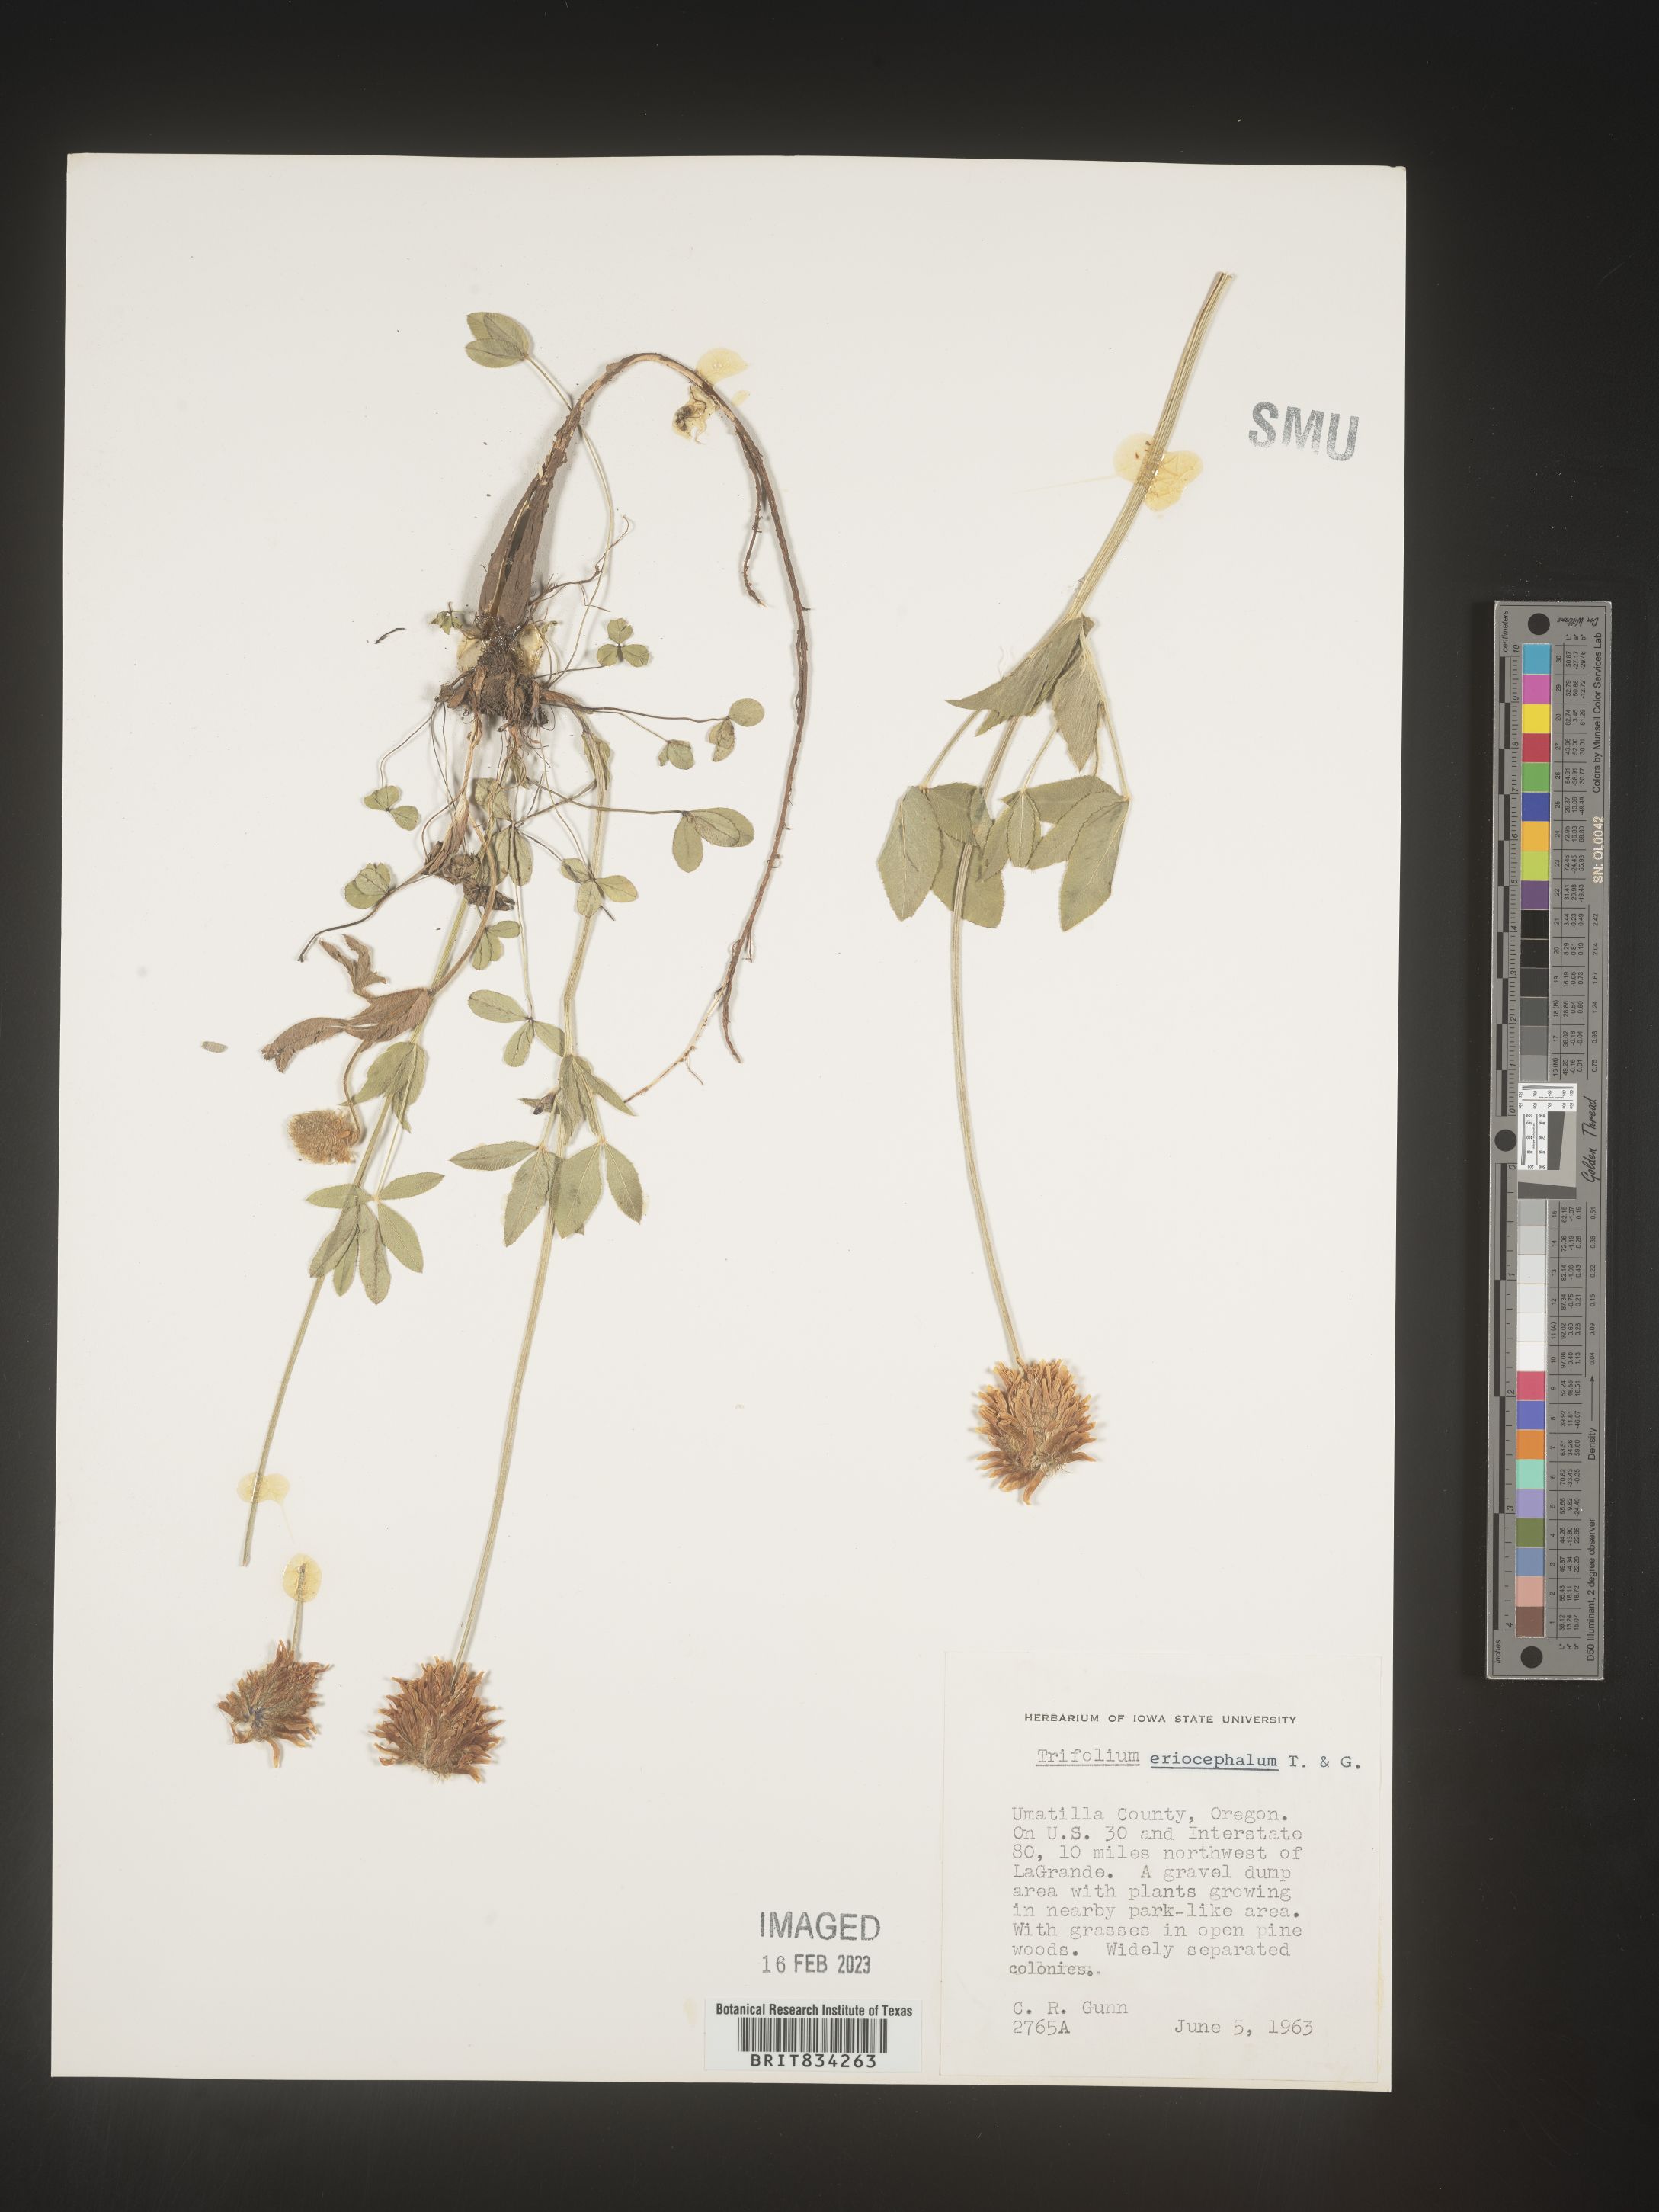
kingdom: Plantae
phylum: Tracheophyta
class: Magnoliopsida
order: Fabales
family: Fabaceae
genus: Trifolium
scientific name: Trifolium
